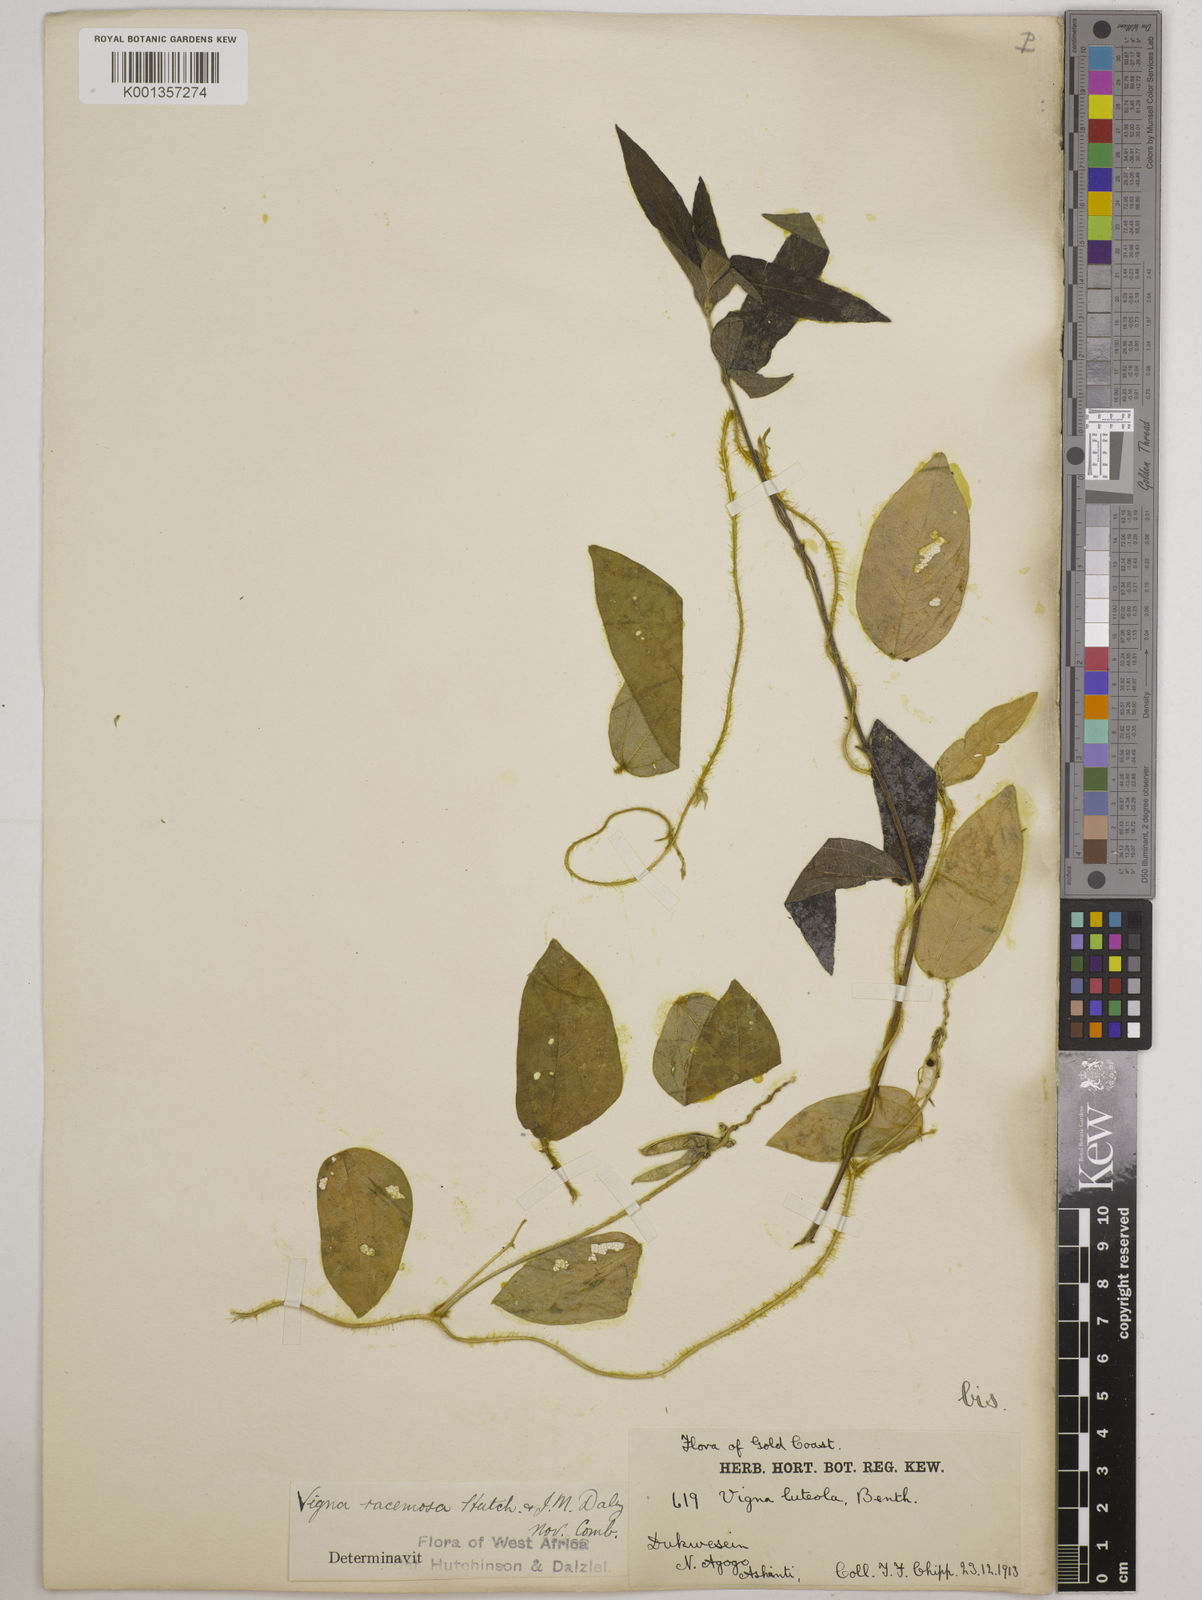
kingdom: Plantae
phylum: Tracheophyta
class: Magnoliopsida
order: Fabales
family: Fabaceae
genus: Vigna
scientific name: Vigna racemosa
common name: Beans not eaten
